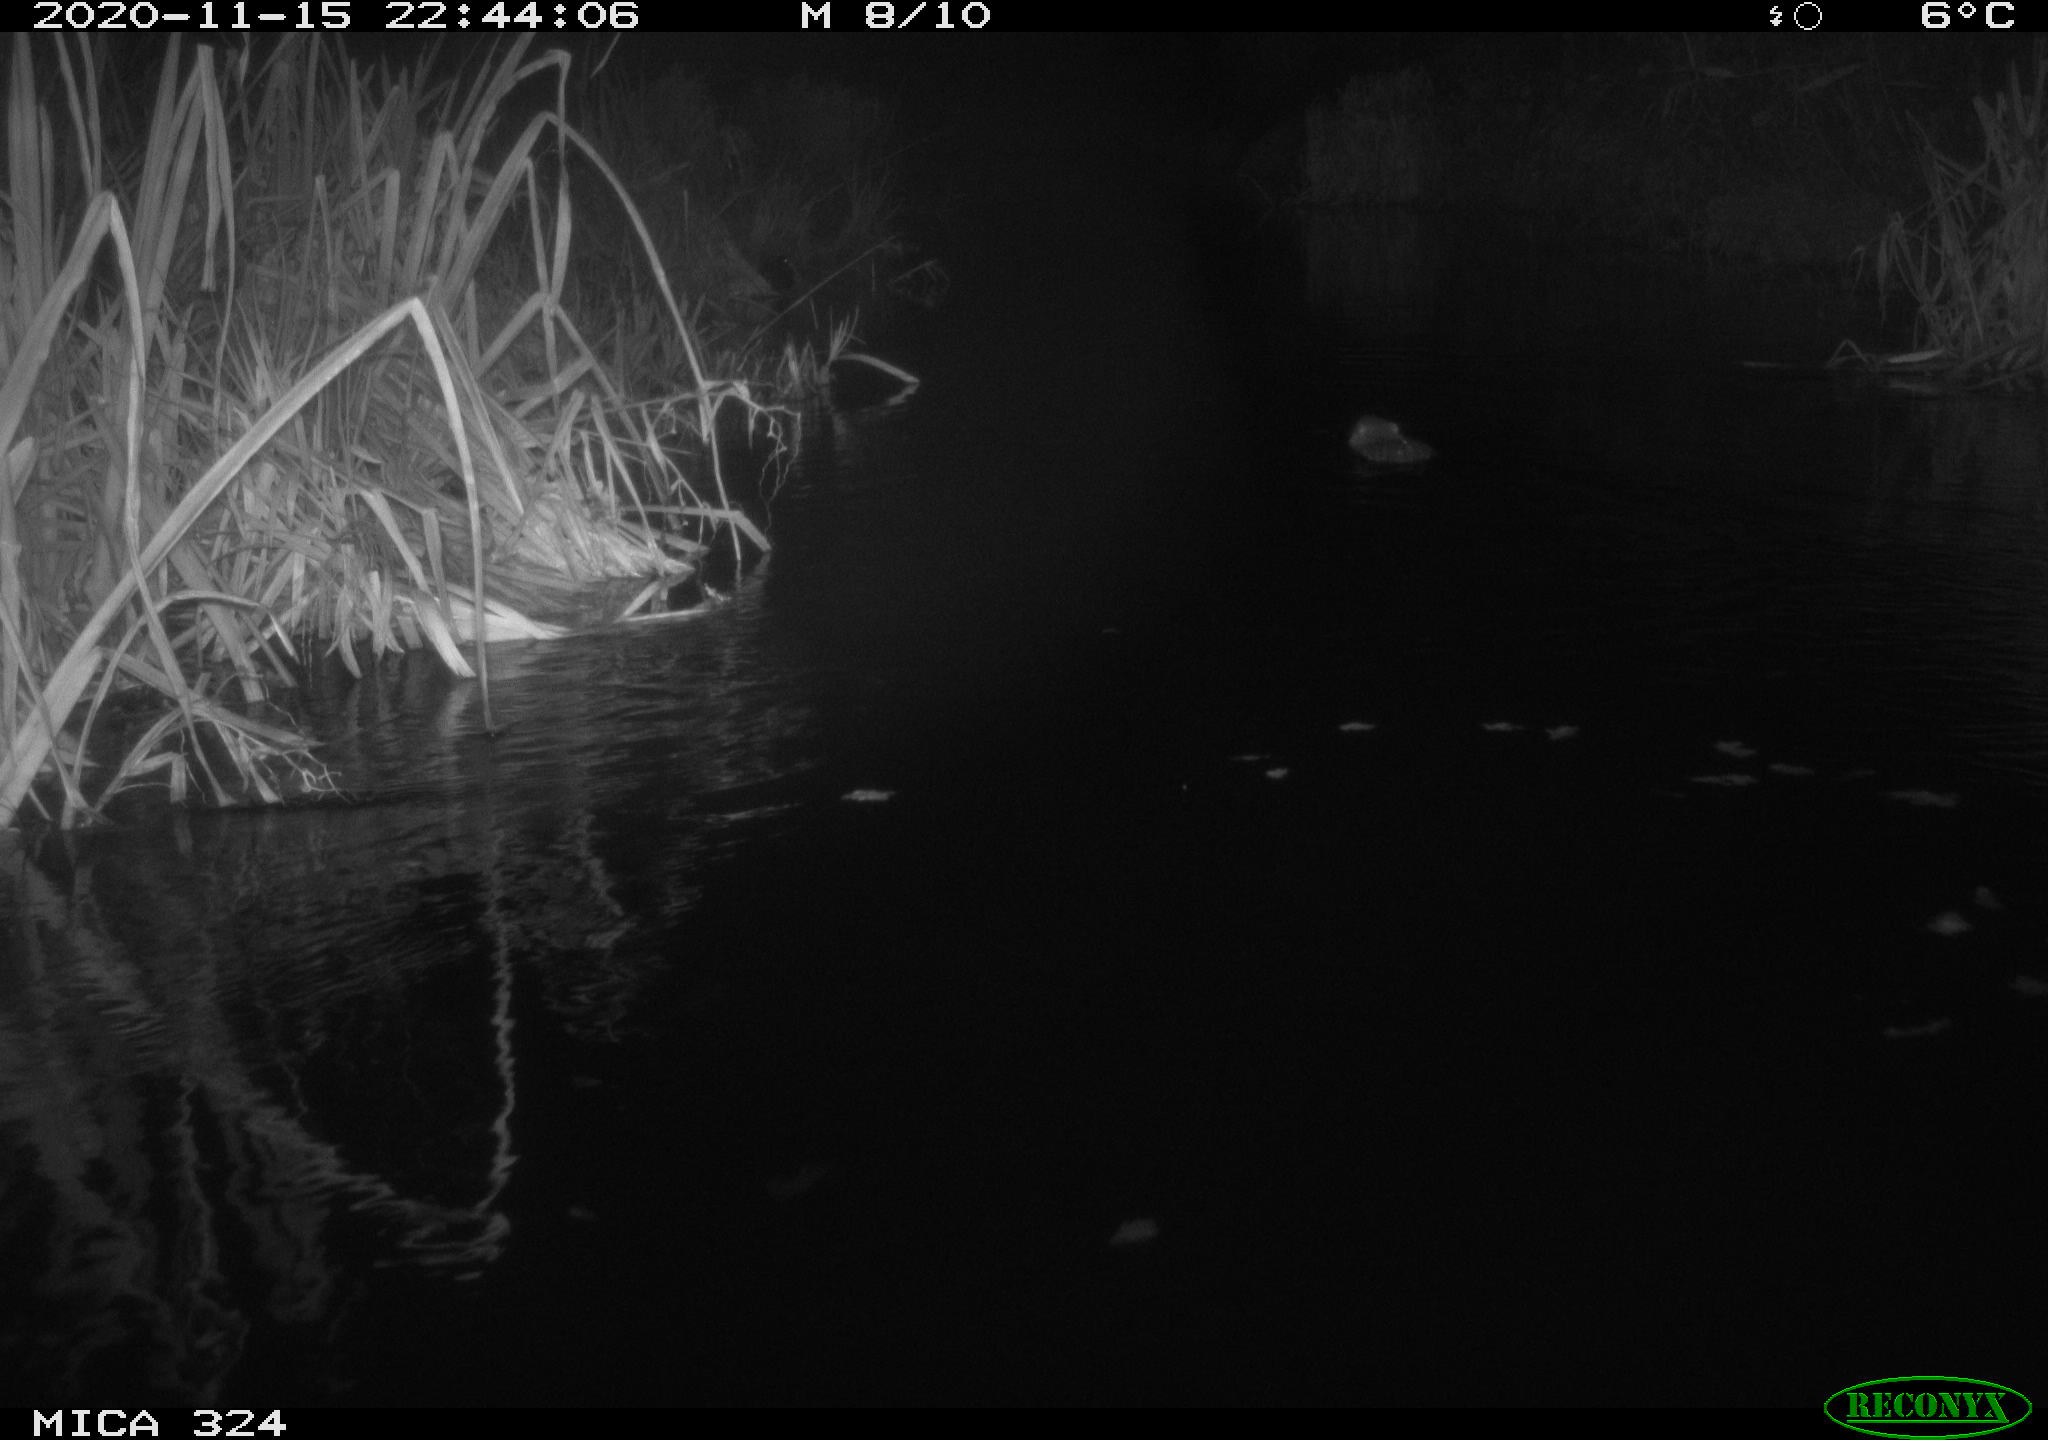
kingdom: Animalia
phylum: Chordata
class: Mammalia
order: Rodentia
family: Myocastoridae
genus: Myocastor
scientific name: Myocastor coypus
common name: Coypu
